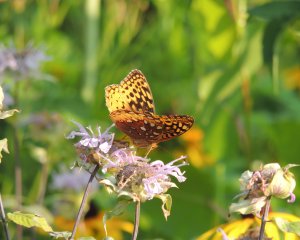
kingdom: Animalia
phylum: Arthropoda
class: Insecta
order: Lepidoptera
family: Nymphalidae
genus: Speyeria
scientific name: Speyeria cybele
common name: Great Spangled Fritillary
